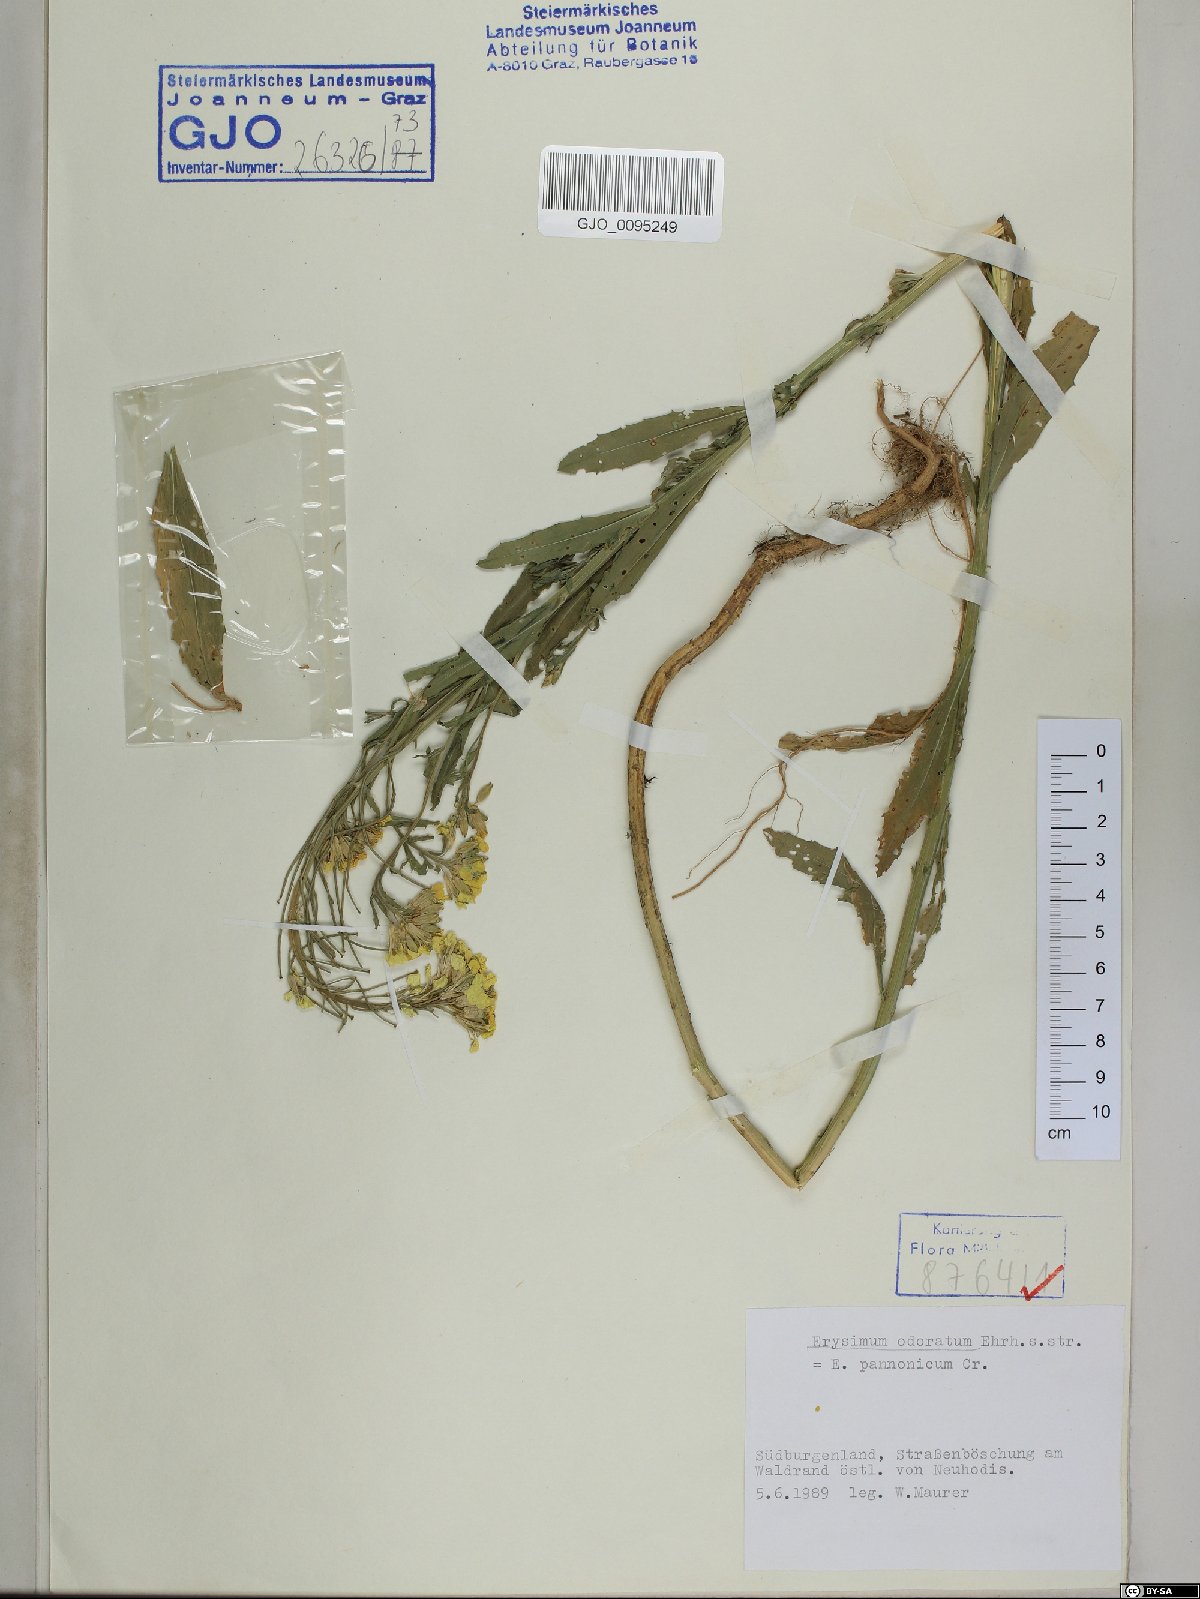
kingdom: Plantae
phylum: Tracheophyta
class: Magnoliopsida
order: Brassicales
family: Brassicaceae
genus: Erysimum
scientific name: Erysimum odoratum
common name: Smelly wallflower
